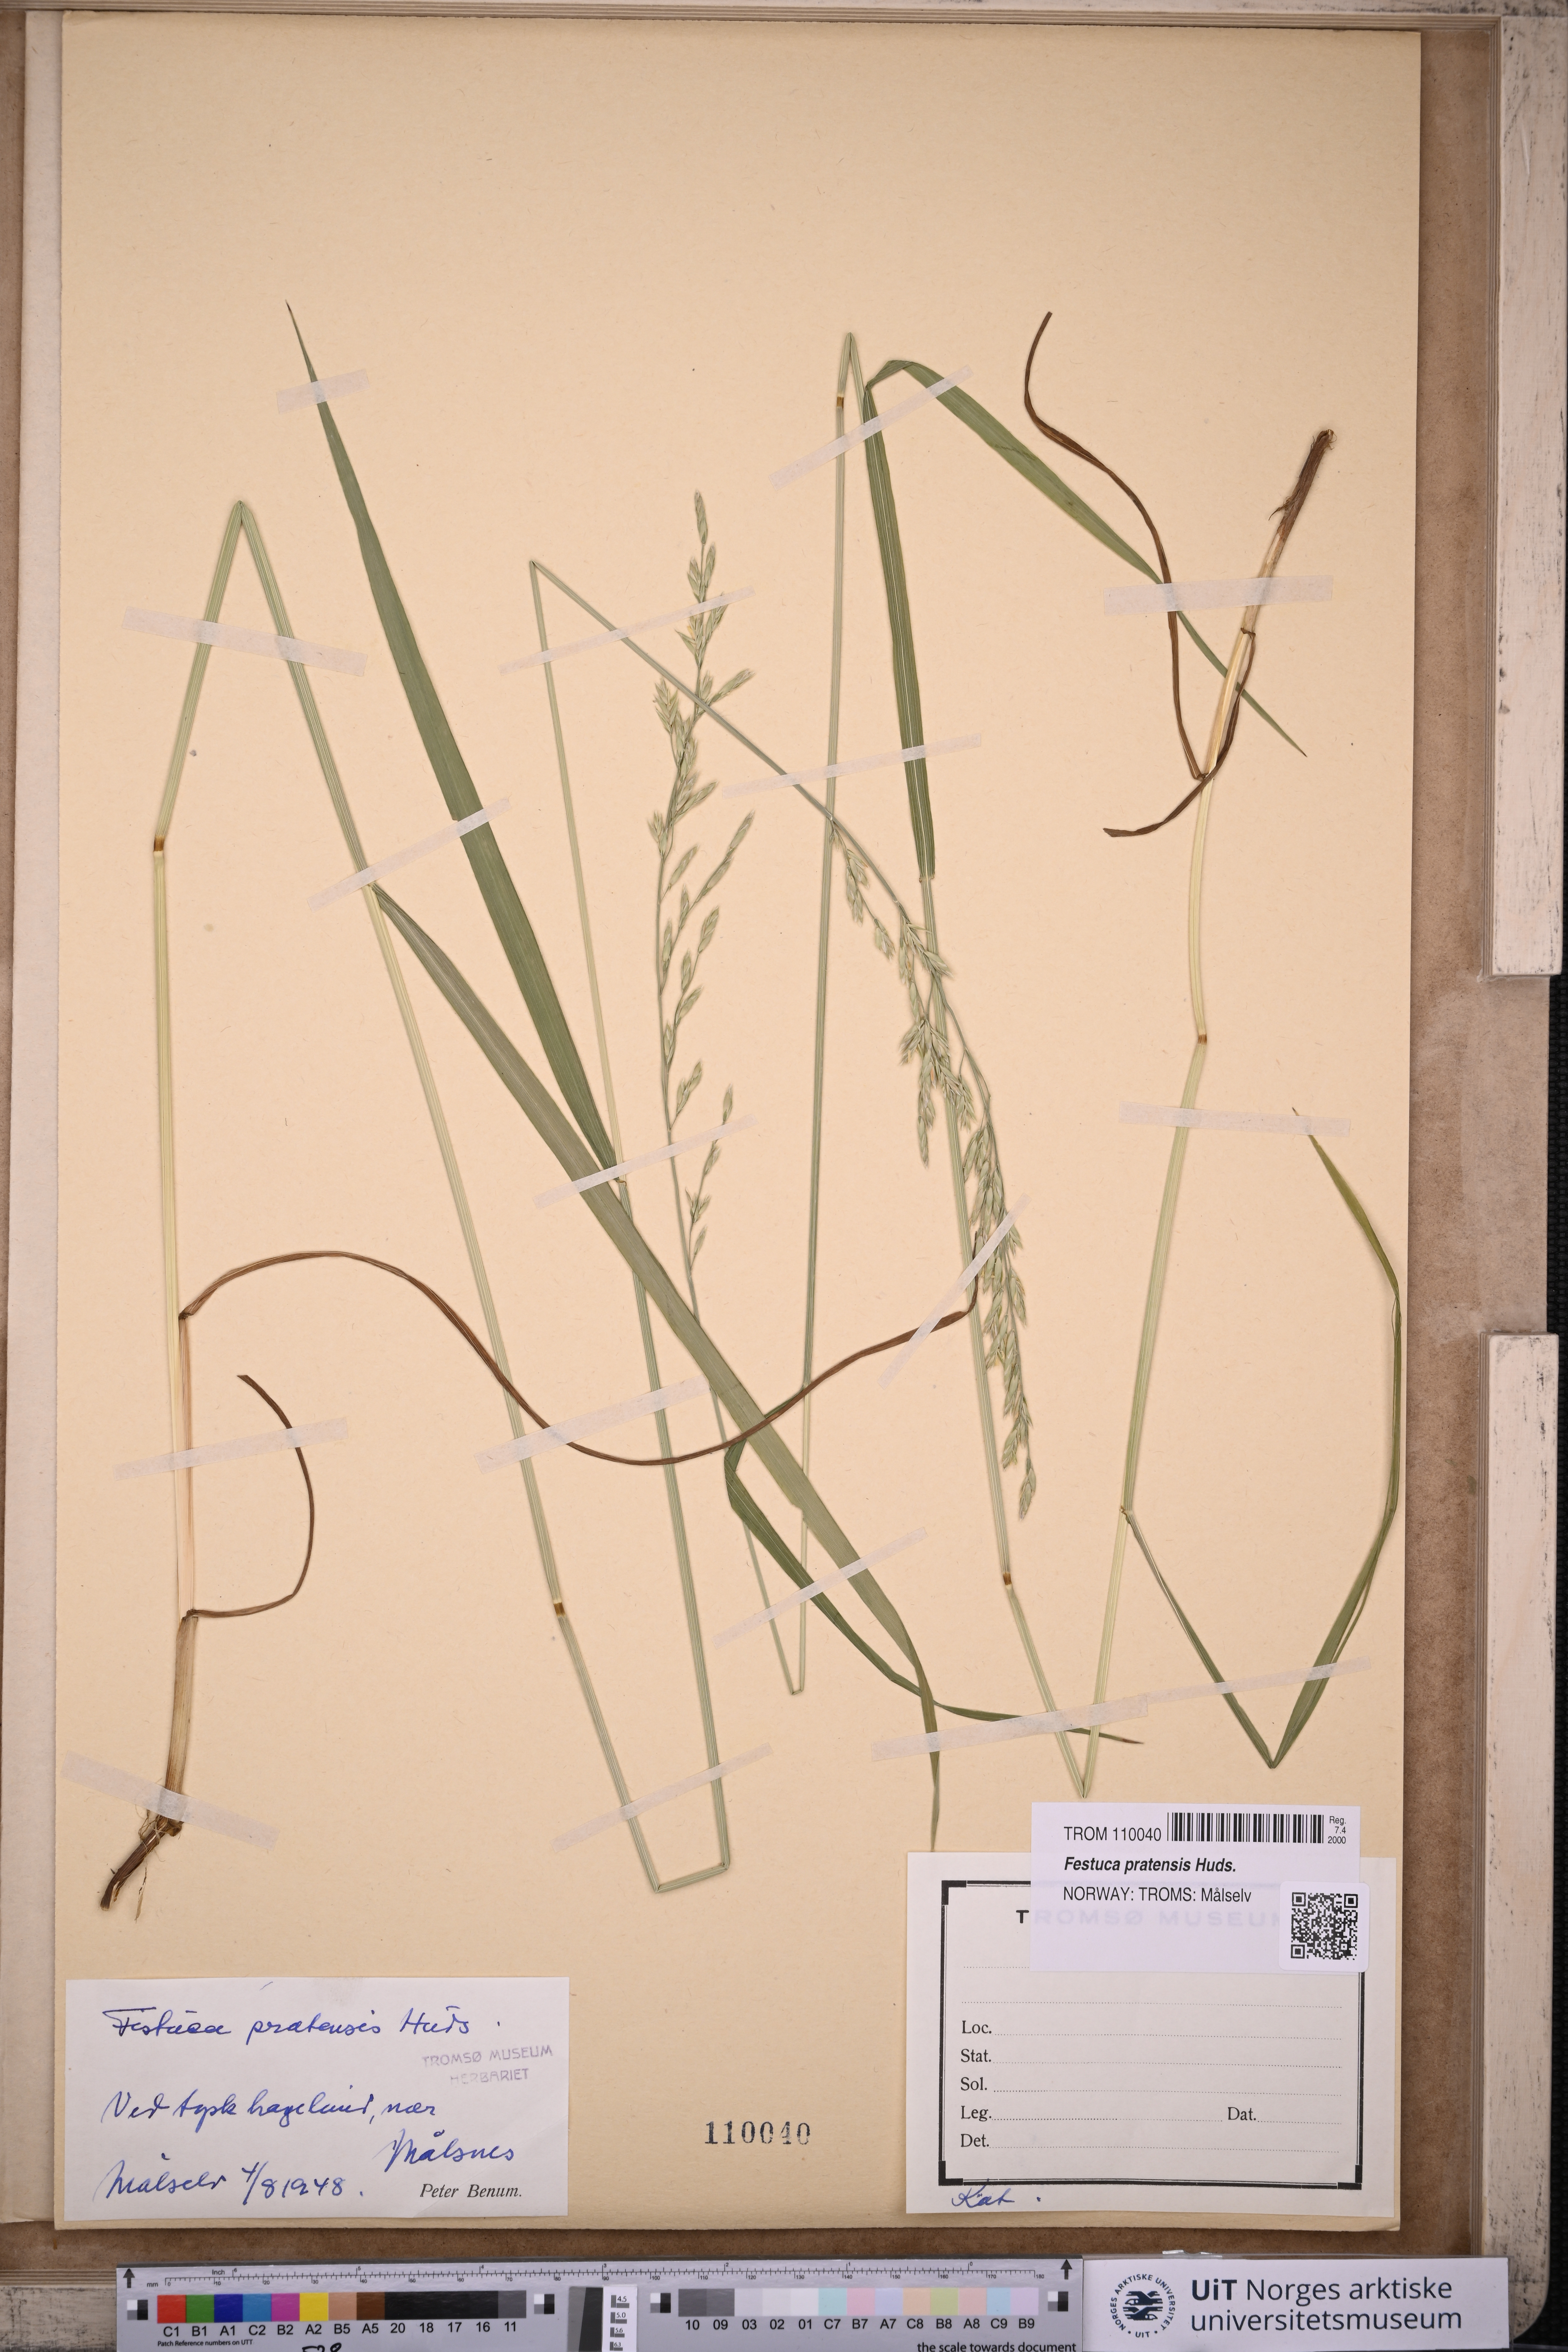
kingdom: Plantae
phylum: Tracheophyta
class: Liliopsida
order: Poales
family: Poaceae
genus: Lolium
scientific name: Lolium pratense
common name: Dover grass
